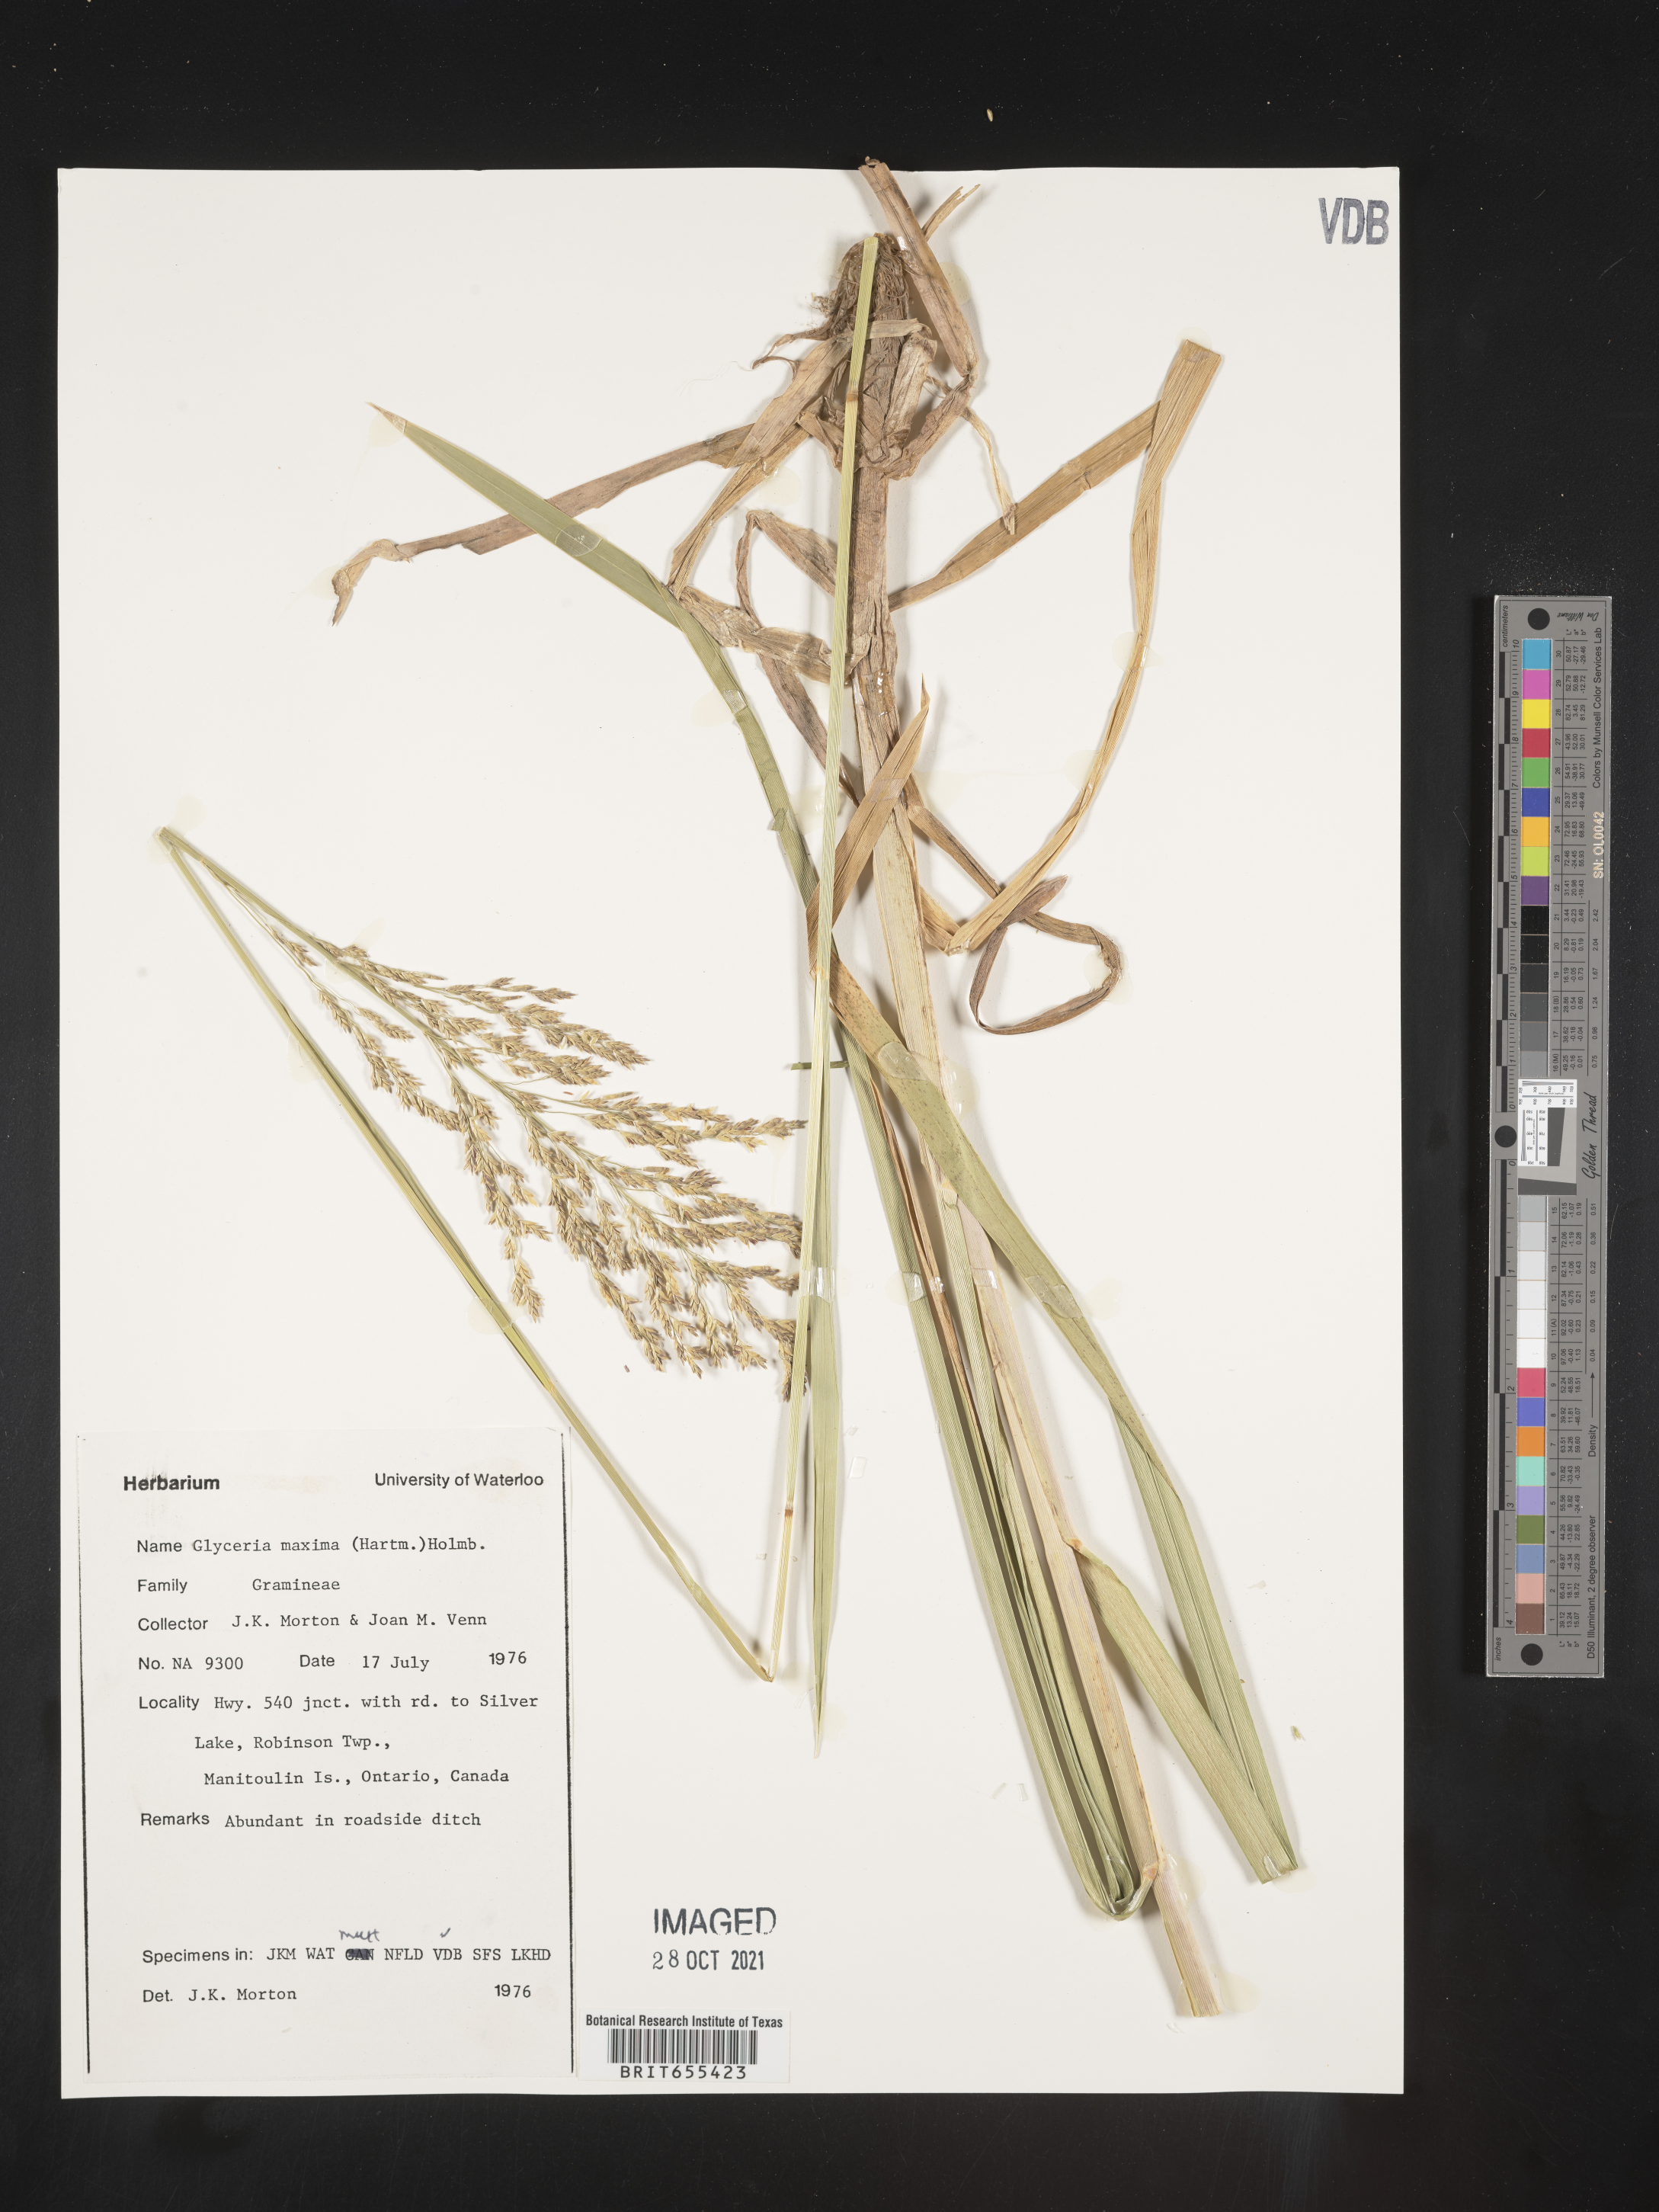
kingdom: Plantae
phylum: Tracheophyta
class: Liliopsida
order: Poales
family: Poaceae
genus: Glyceria
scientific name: Glyceria
